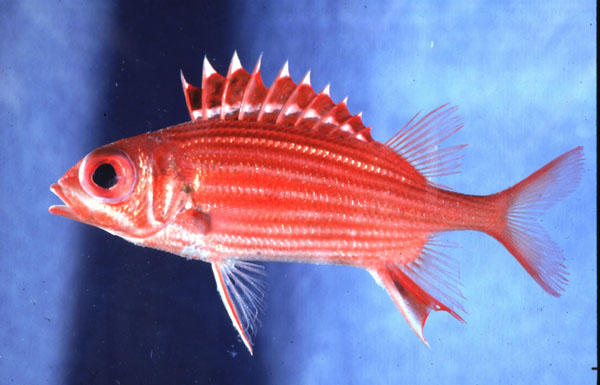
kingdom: Animalia
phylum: Chordata
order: Beryciformes
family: Holocentridae
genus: Sargocentron
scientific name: Sargocentron microstoma
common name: Fine-lined squirrelfish
